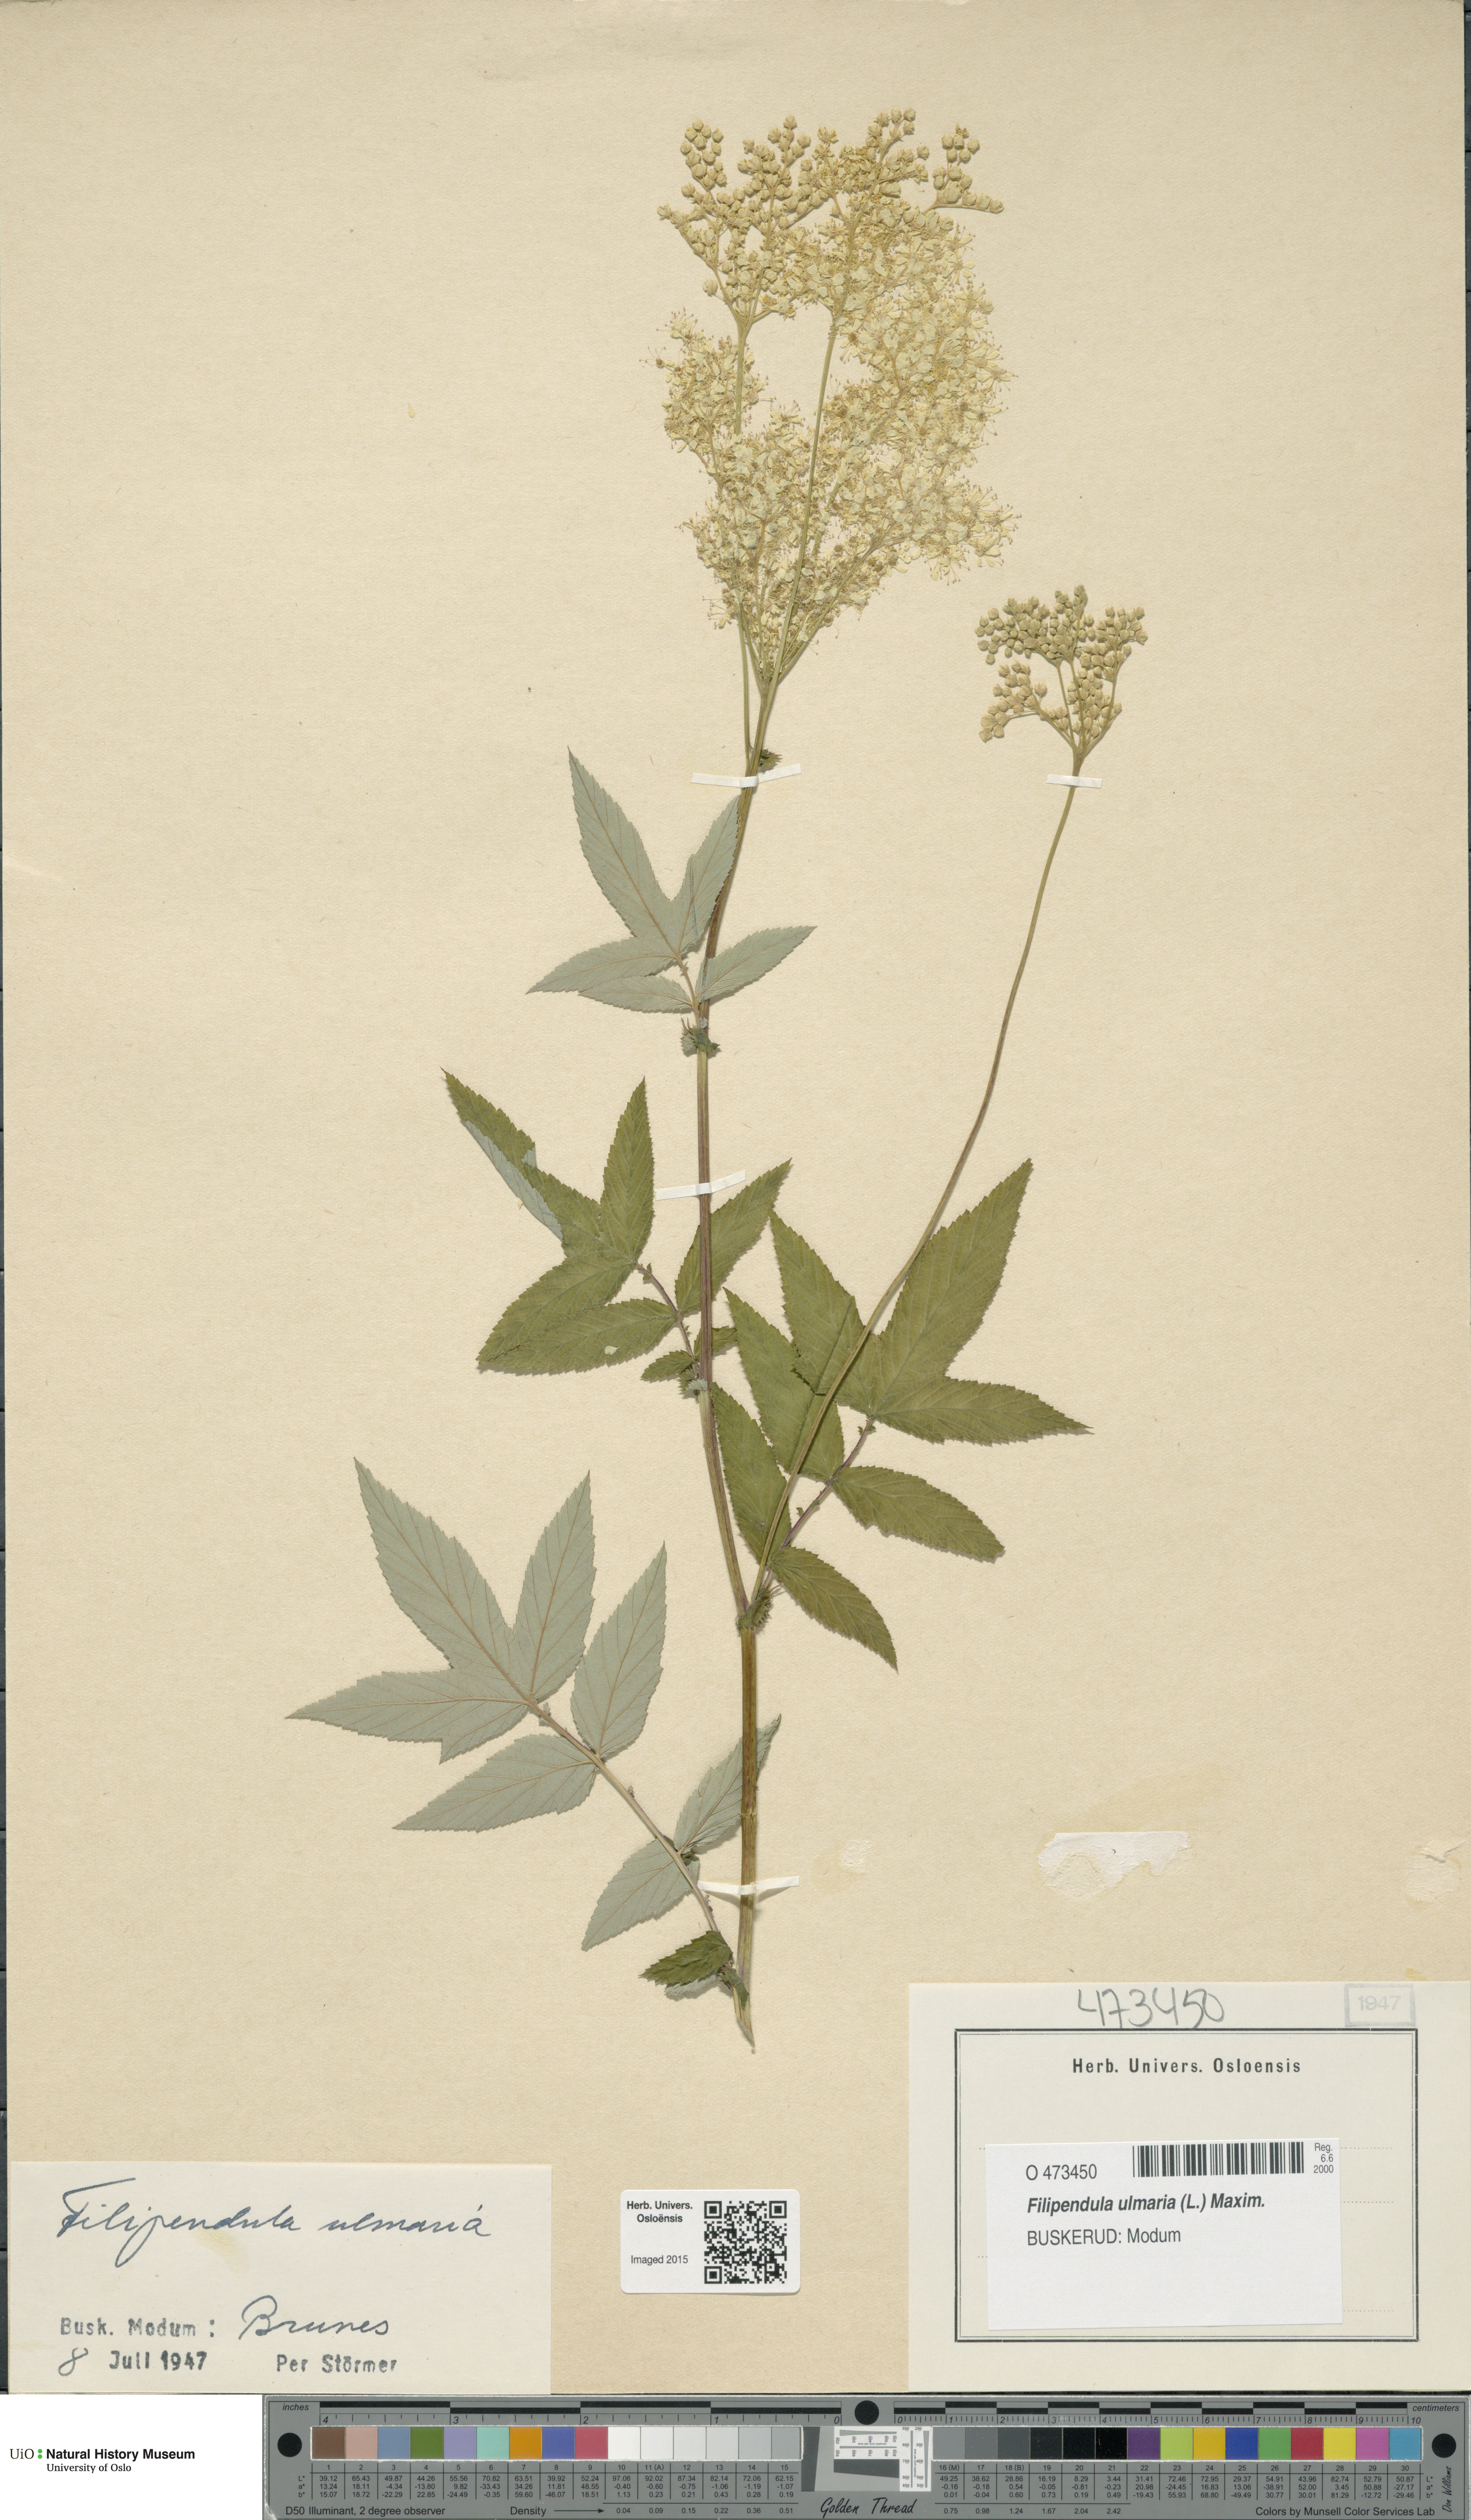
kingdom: Plantae
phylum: Tracheophyta
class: Magnoliopsida
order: Rosales
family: Rosaceae
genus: Filipendula
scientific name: Filipendula ulmaria
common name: Meadowsweet
